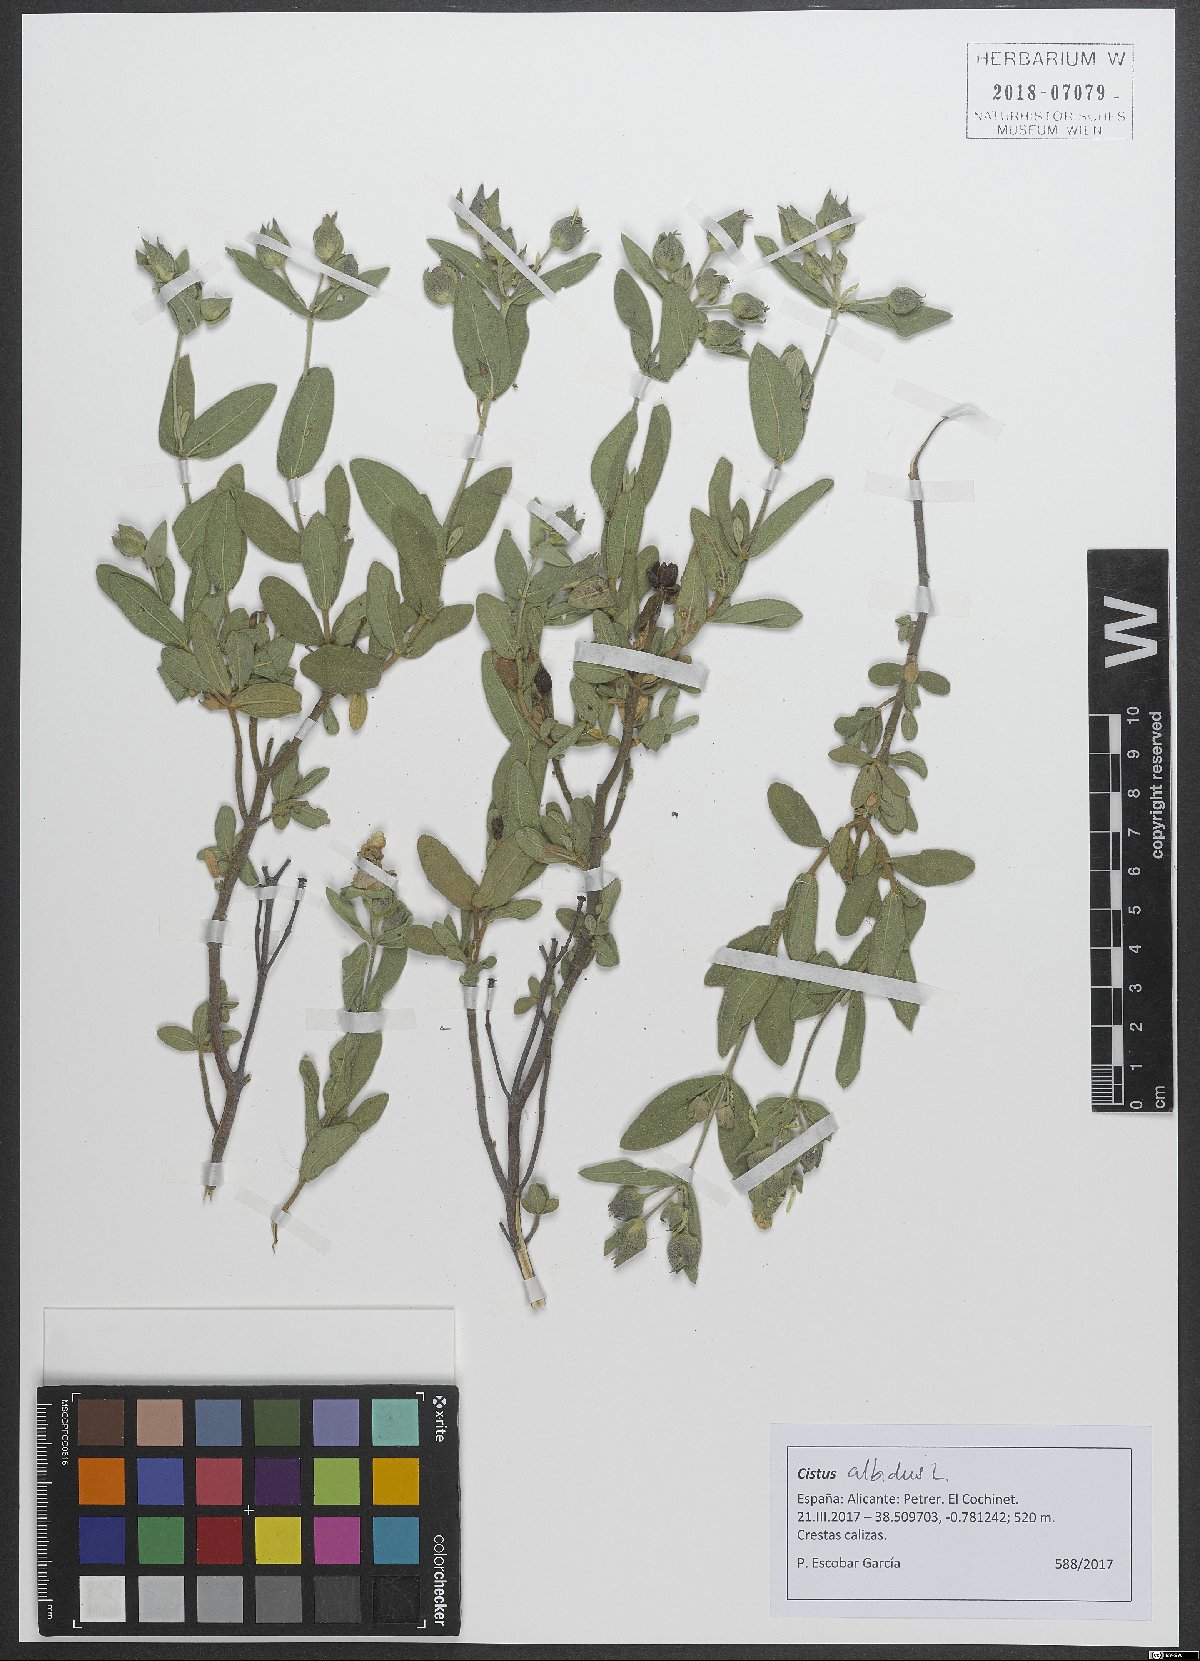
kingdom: Plantae
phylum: Tracheophyta
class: Magnoliopsida
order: Malvales
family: Cistaceae
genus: Cistus
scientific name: Cistus albidus
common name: White-leaf rock-rose
